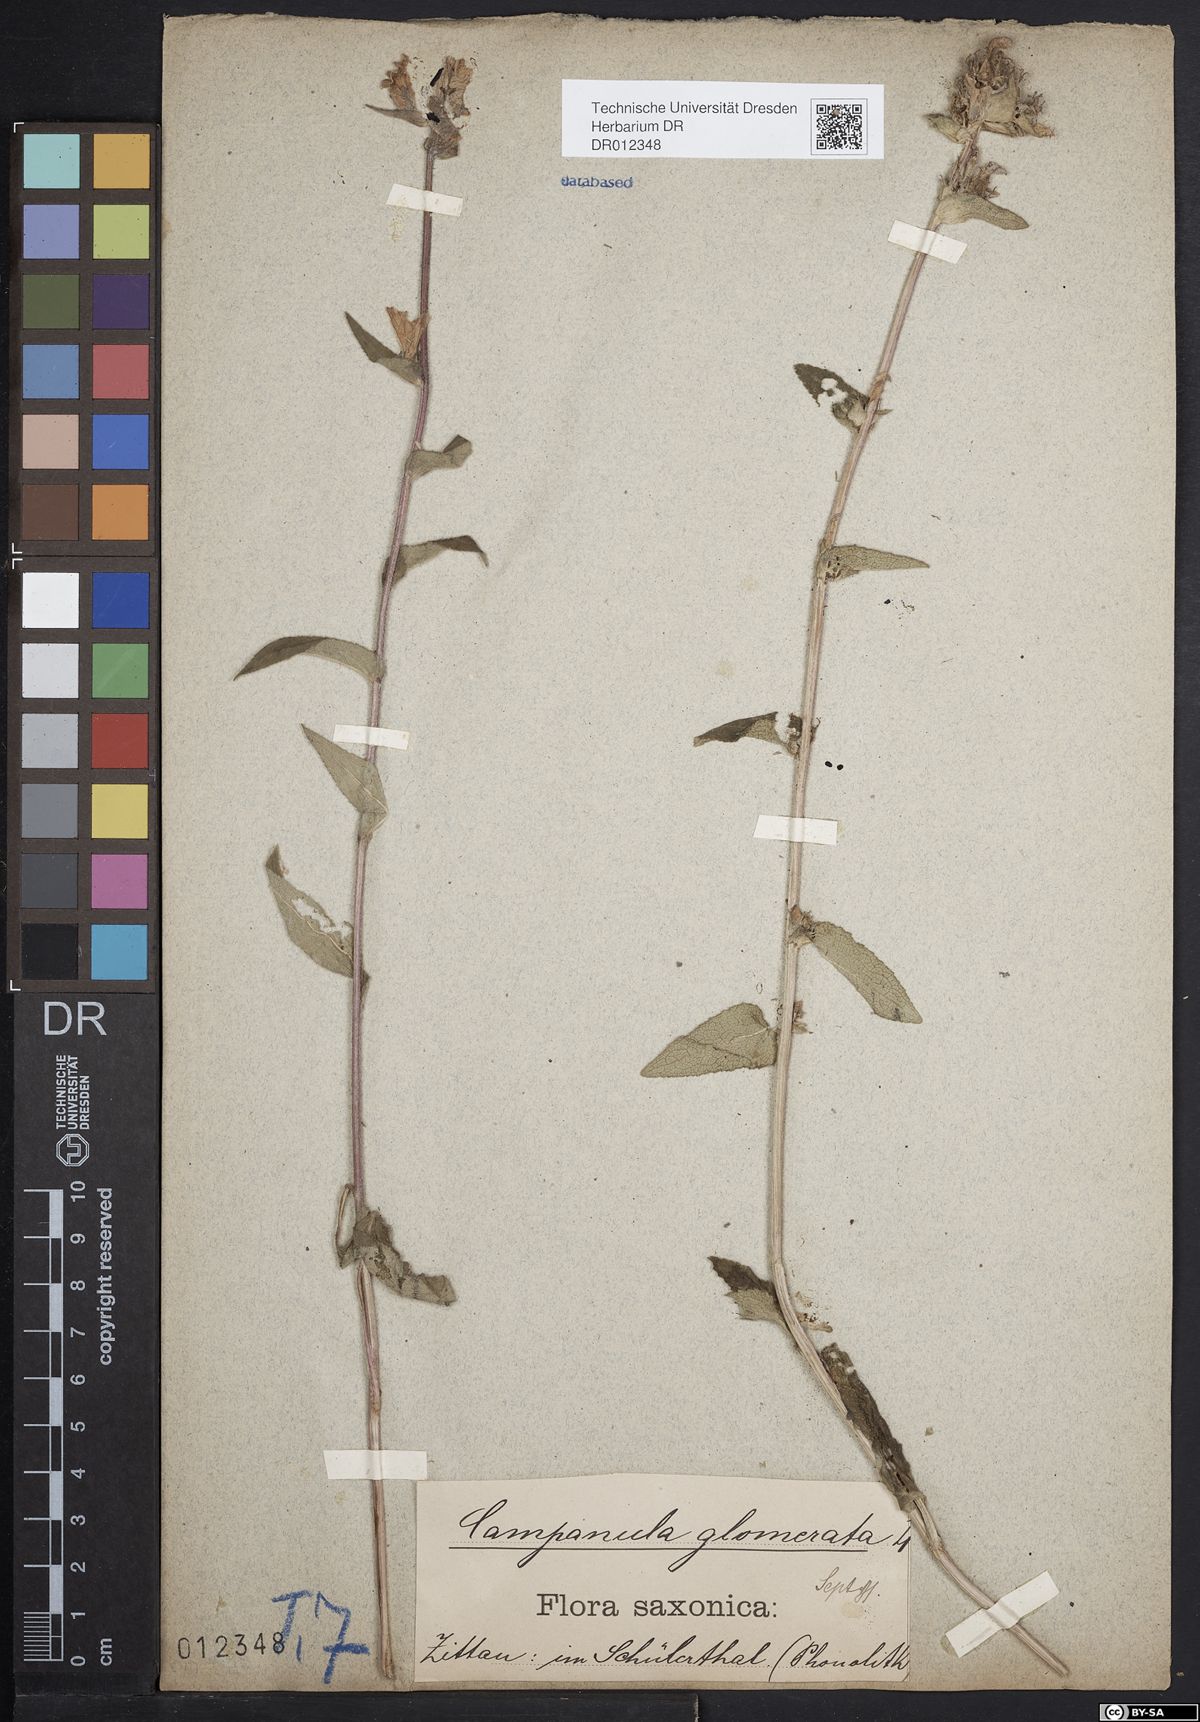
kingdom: Plantae
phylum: Tracheophyta
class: Magnoliopsida
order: Asterales
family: Campanulaceae
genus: Campanula
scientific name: Campanula glomerata
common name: Clustered bellflower
